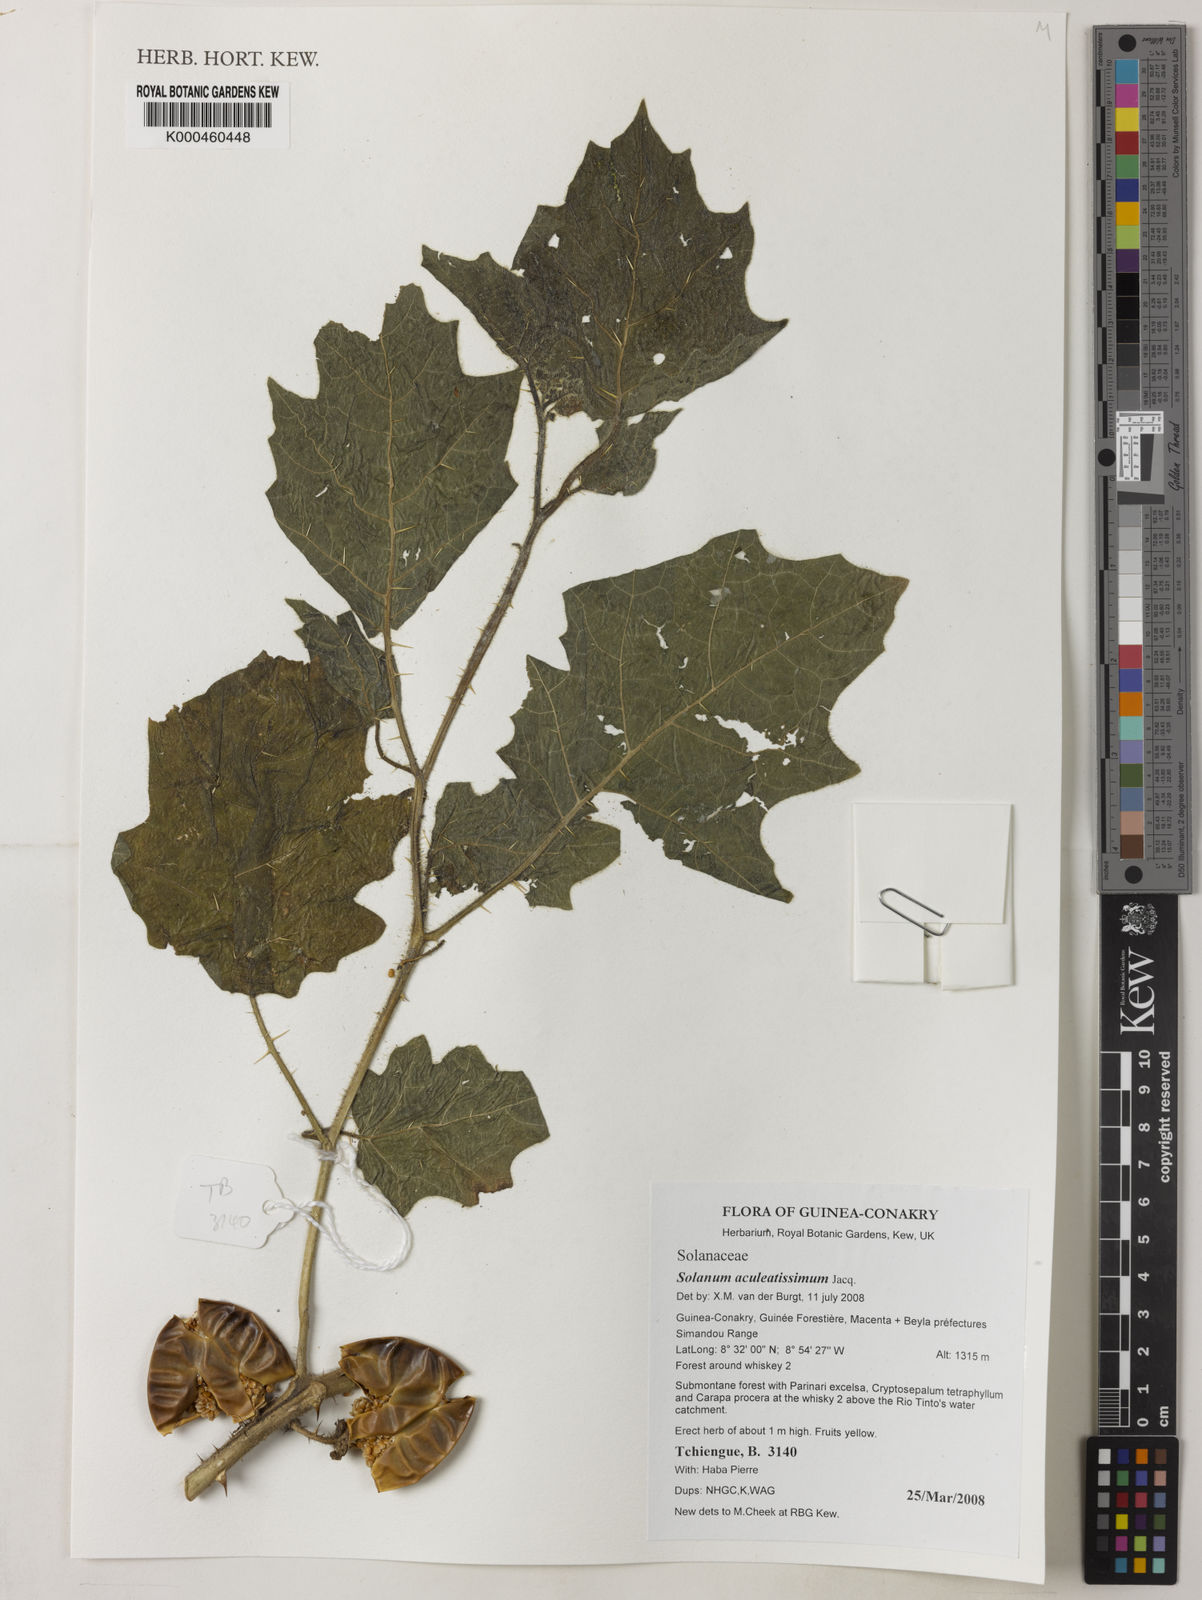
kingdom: Plantae
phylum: Tracheophyta
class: Magnoliopsida
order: Solanales
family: Solanaceae
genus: Solanum
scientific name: Solanum aculeatissimum
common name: Dutch eggplant
